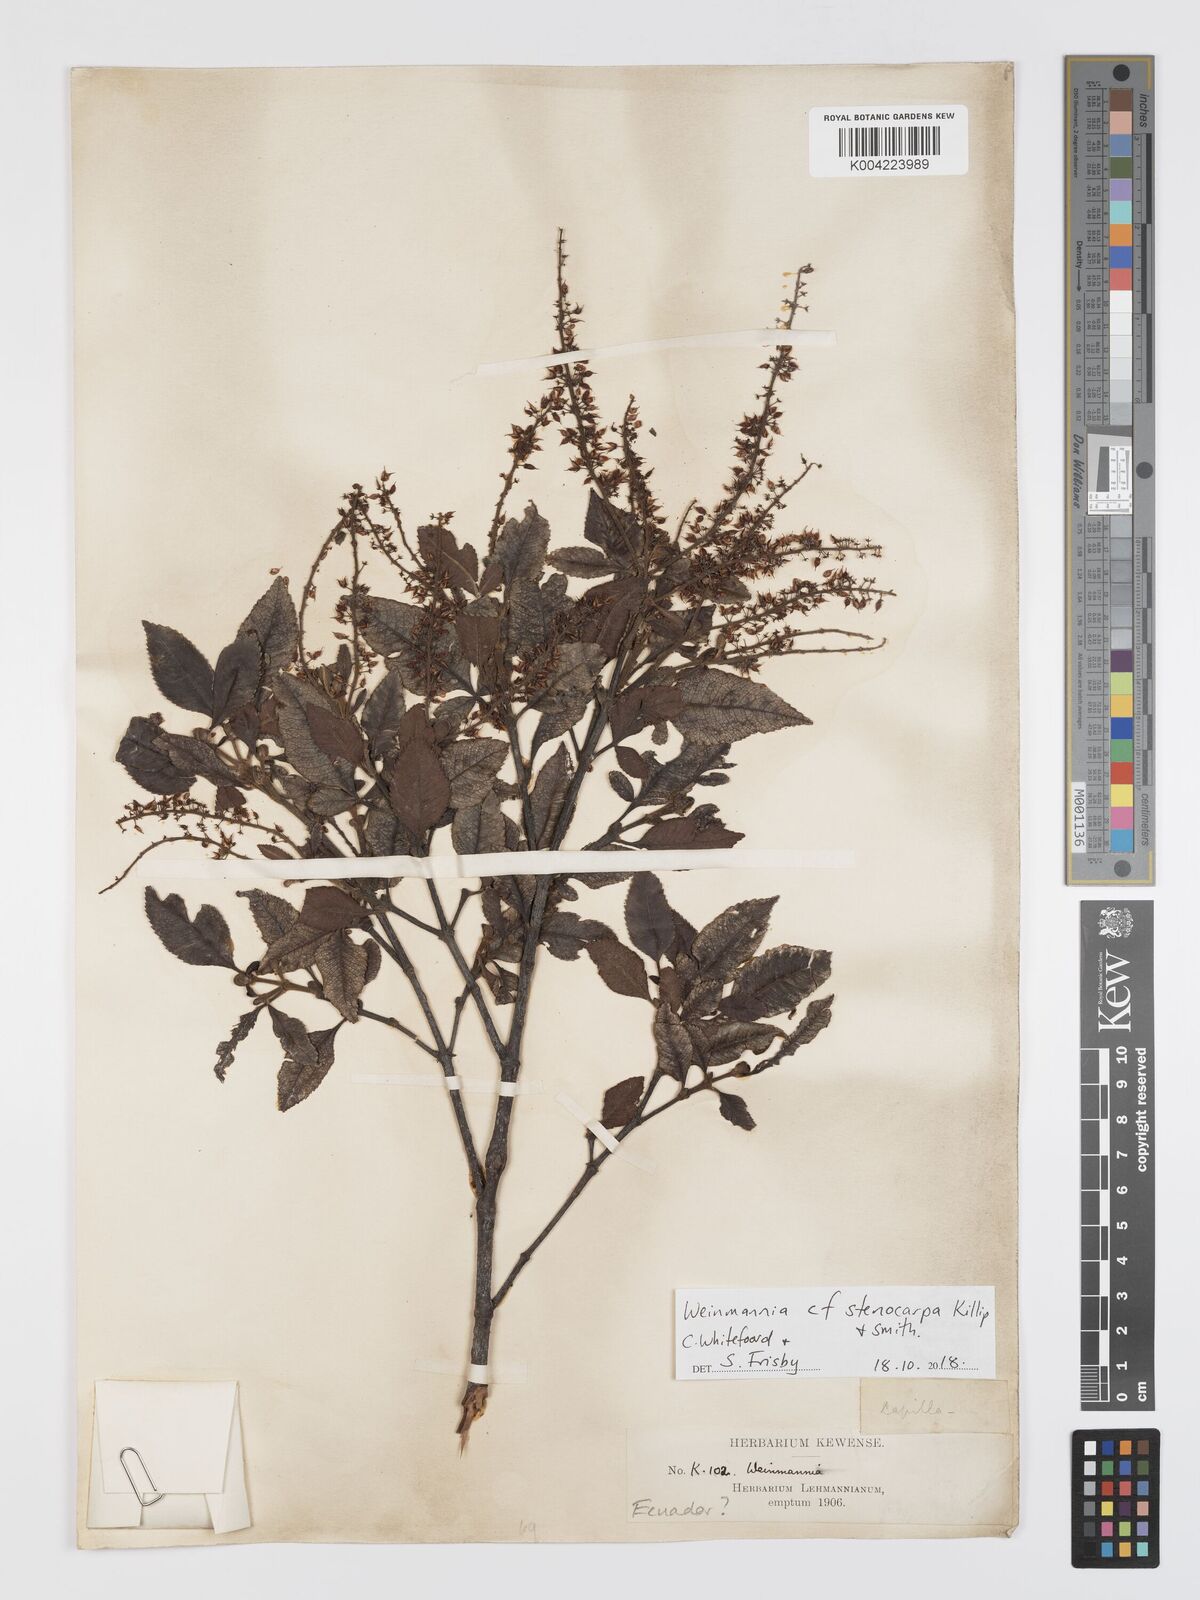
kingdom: Plantae
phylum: Tracheophyta
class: Magnoliopsida
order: Oxalidales
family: Cunoniaceae
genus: Weinmannia
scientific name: Weinmannia stenocarpa
